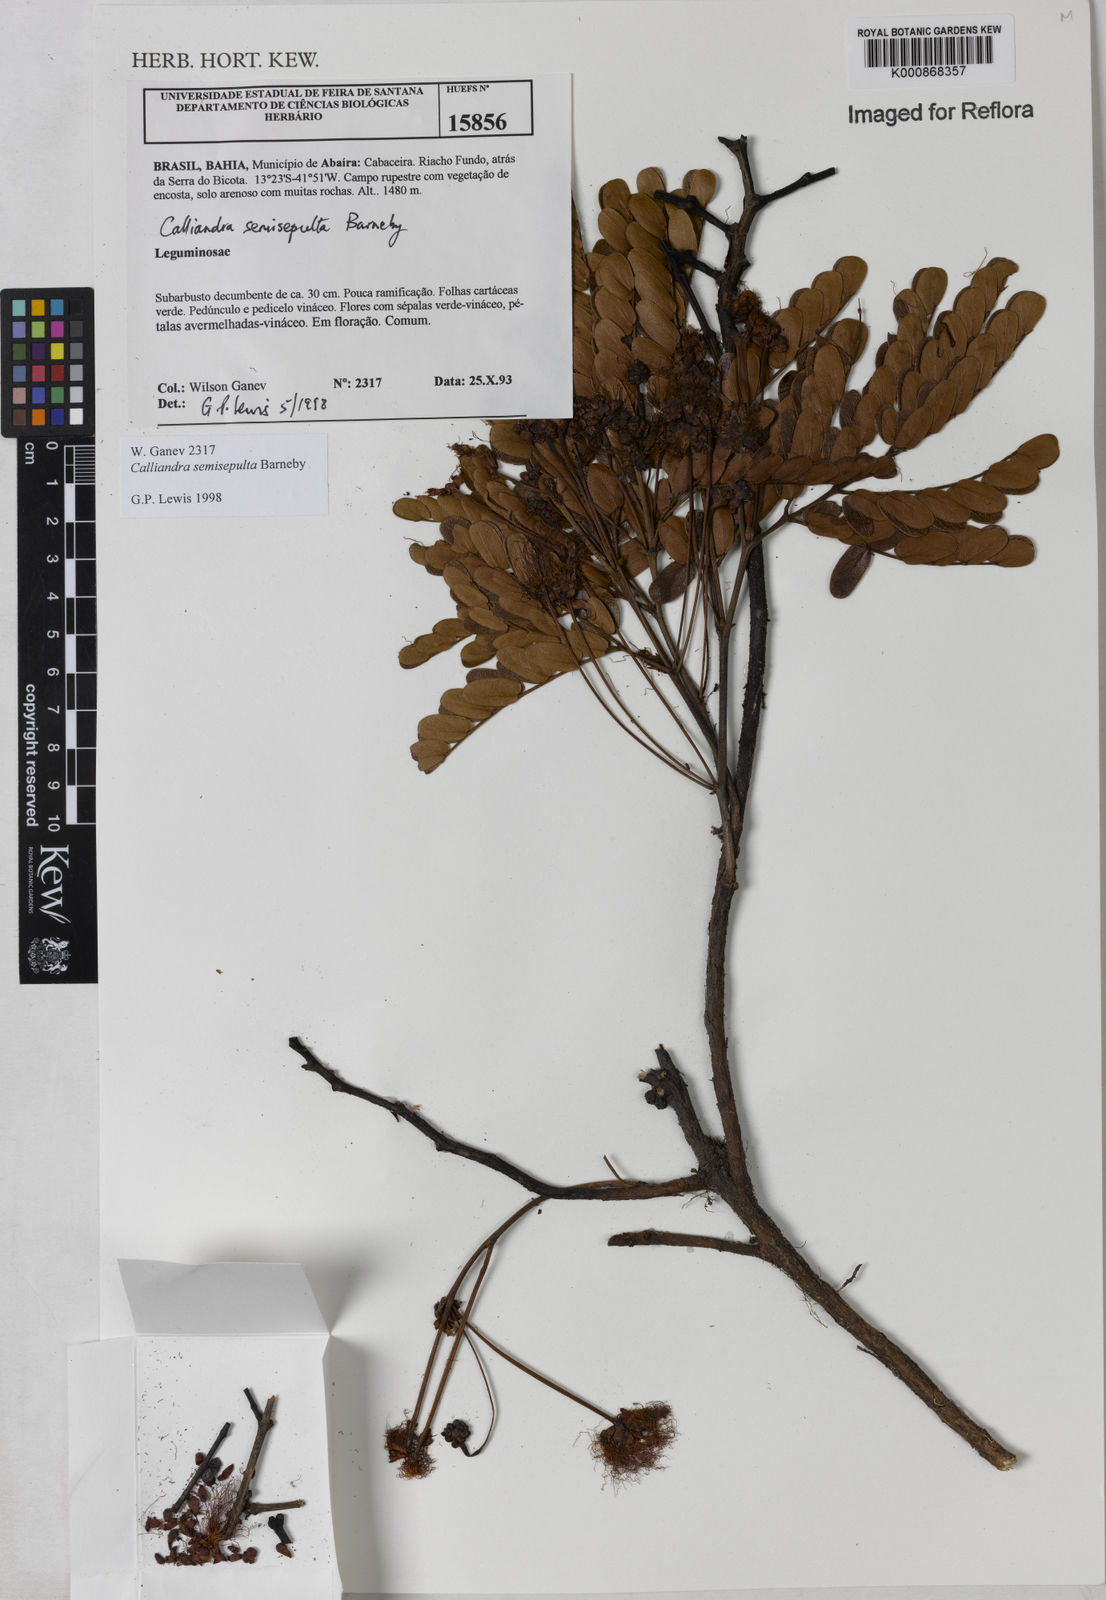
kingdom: Plantae
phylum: Tracheophyta
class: Magnoliopsida
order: Fabales
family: Fabaceae
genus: Calliandra
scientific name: Calliandra semisepulta
